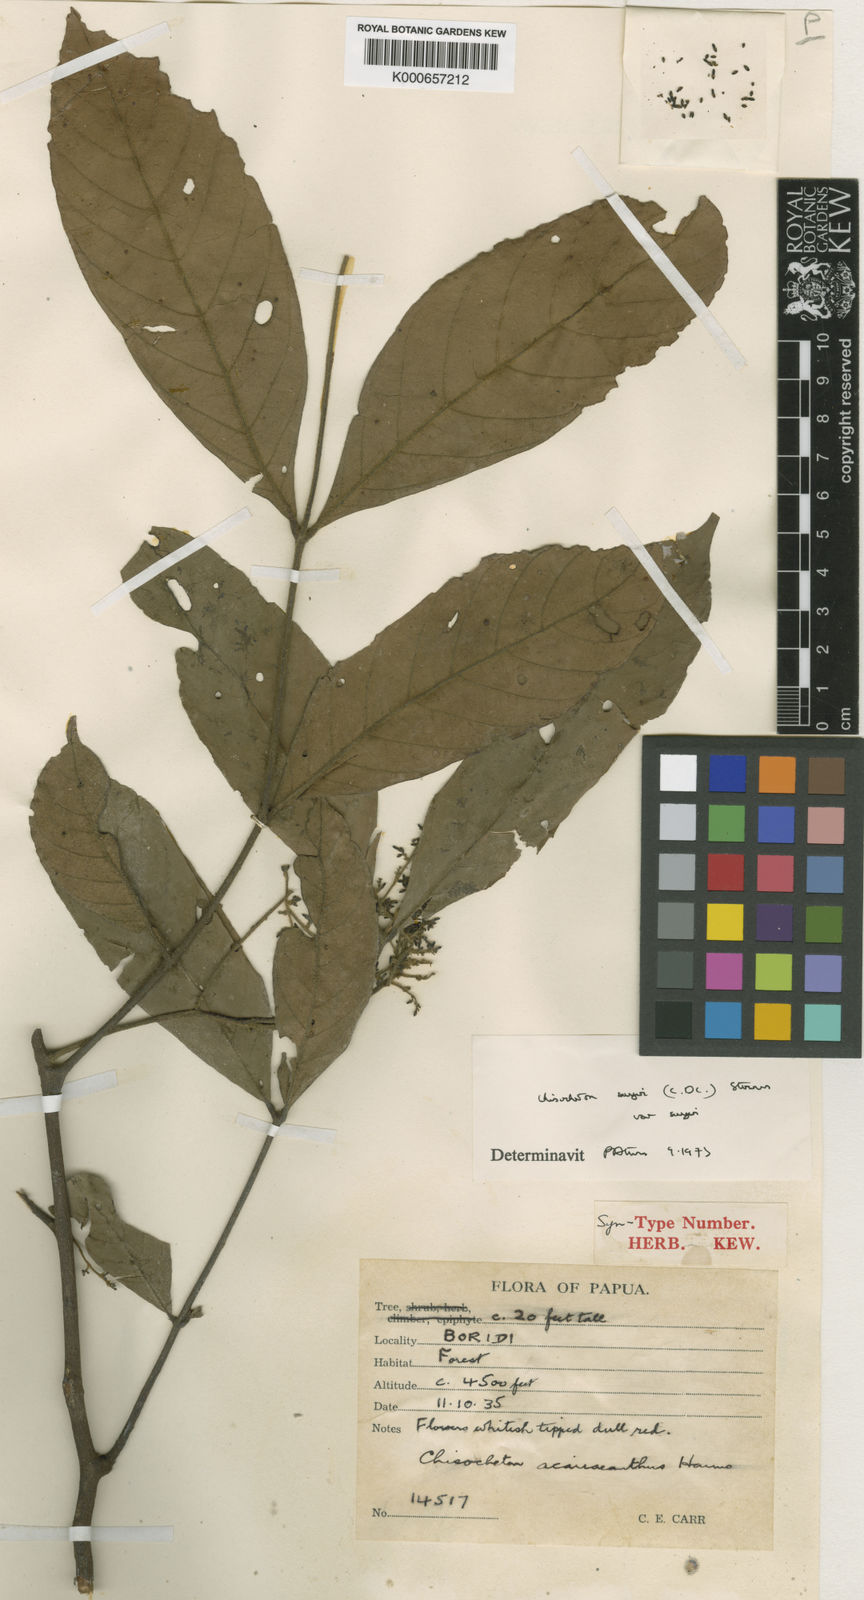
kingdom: Plantae
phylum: Tracheophyta
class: Magnoliopsida
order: Sapindales
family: Meliaceae
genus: Chisocheton
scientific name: Chisocheton sayeri
